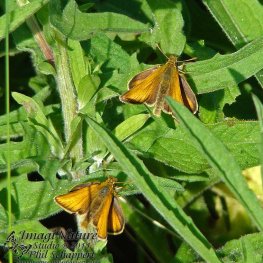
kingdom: Animalia
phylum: Arthropoda
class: Insecta
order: Lepidoptera
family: Hesperiidae
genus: Thymelicus
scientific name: Thymelicus lineola
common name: European Skipper
